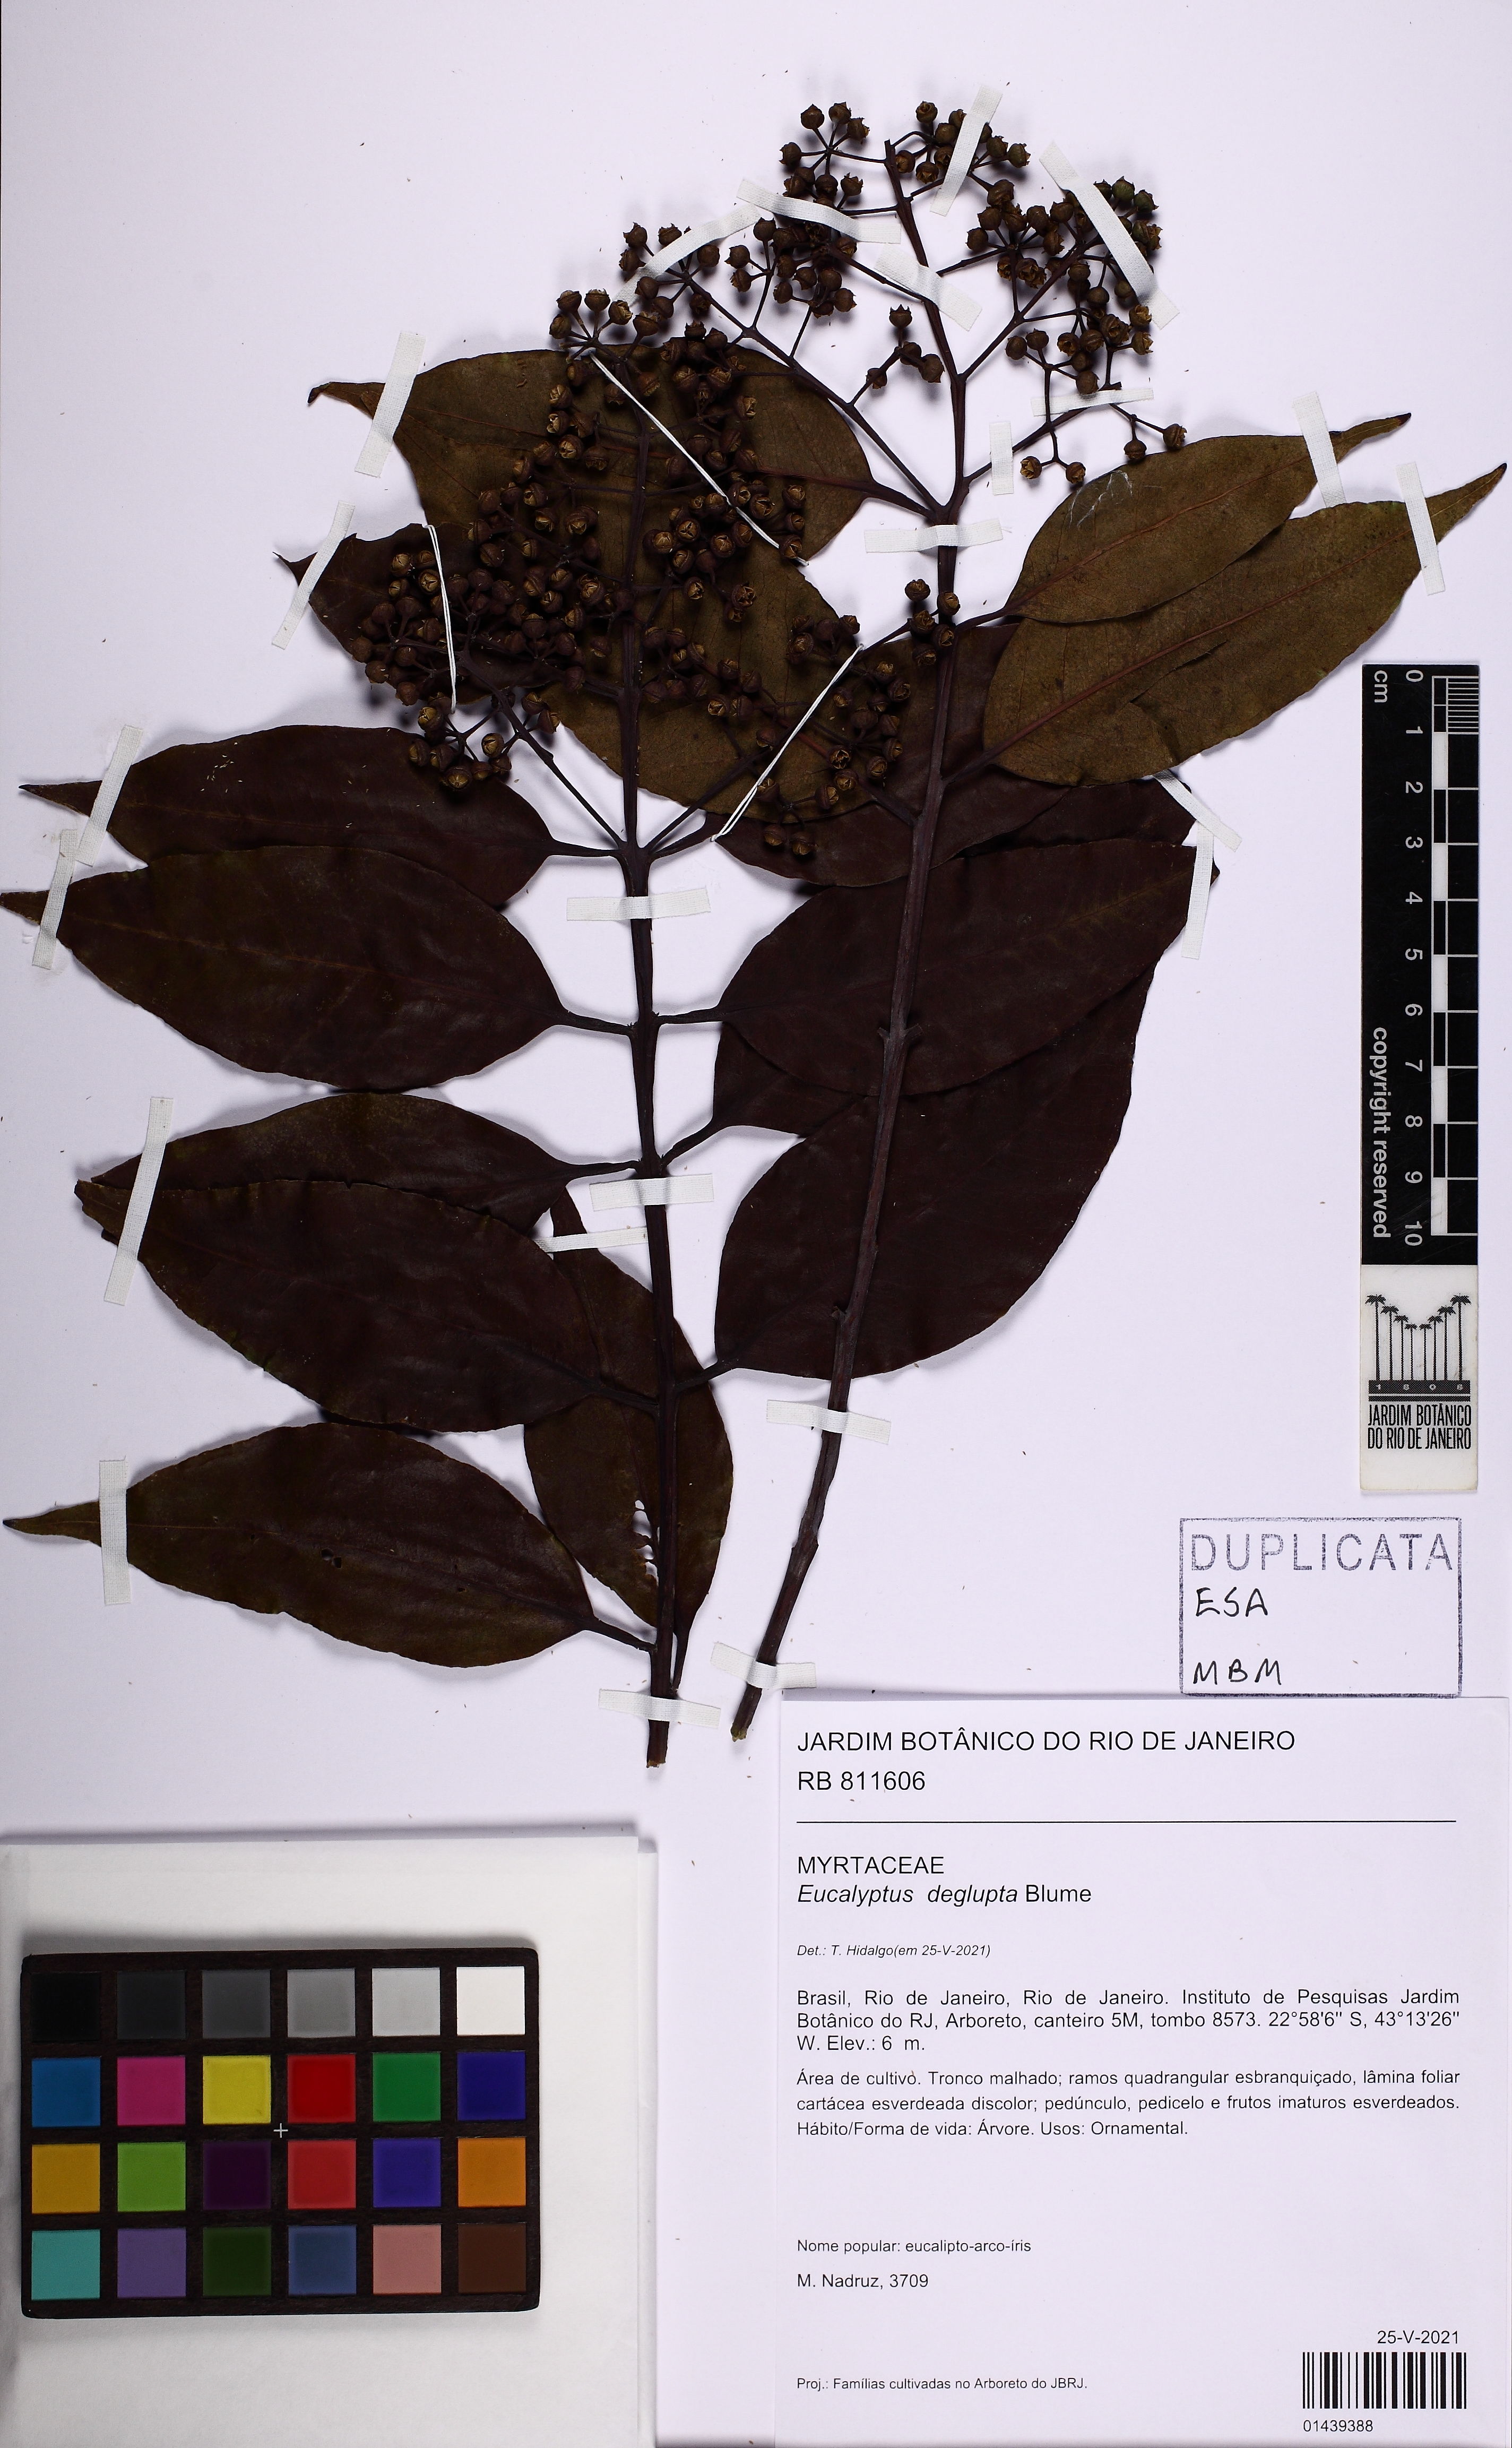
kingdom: Plantae
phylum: Tracheophyta
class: Magnoliopsida
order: Myrtales
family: Myrtaceae
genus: Eucalyptus
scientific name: Eucalyptus deglupta
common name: Mindanao gum
